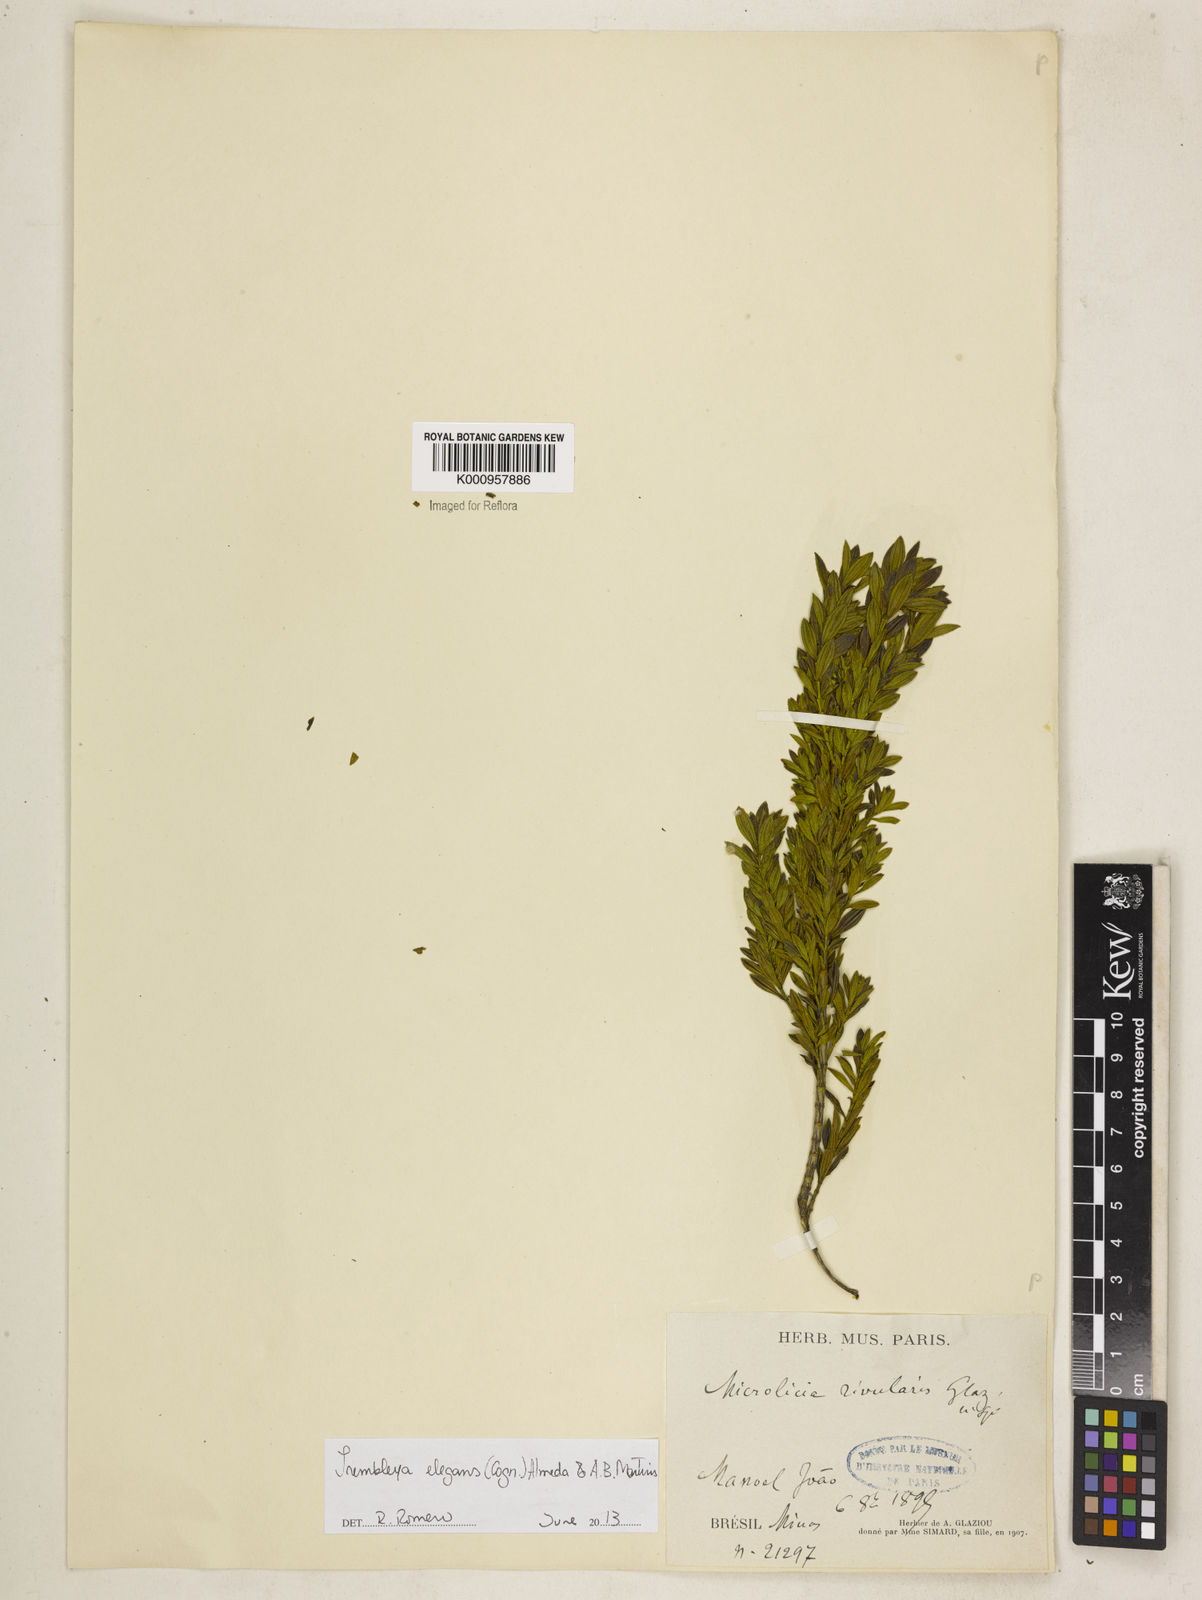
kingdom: Plantae
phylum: Tracheophyta
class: Magnoliopsida
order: Myrtales
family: Melastomataceae
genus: Microlicia
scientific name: Microlicia speciosa
